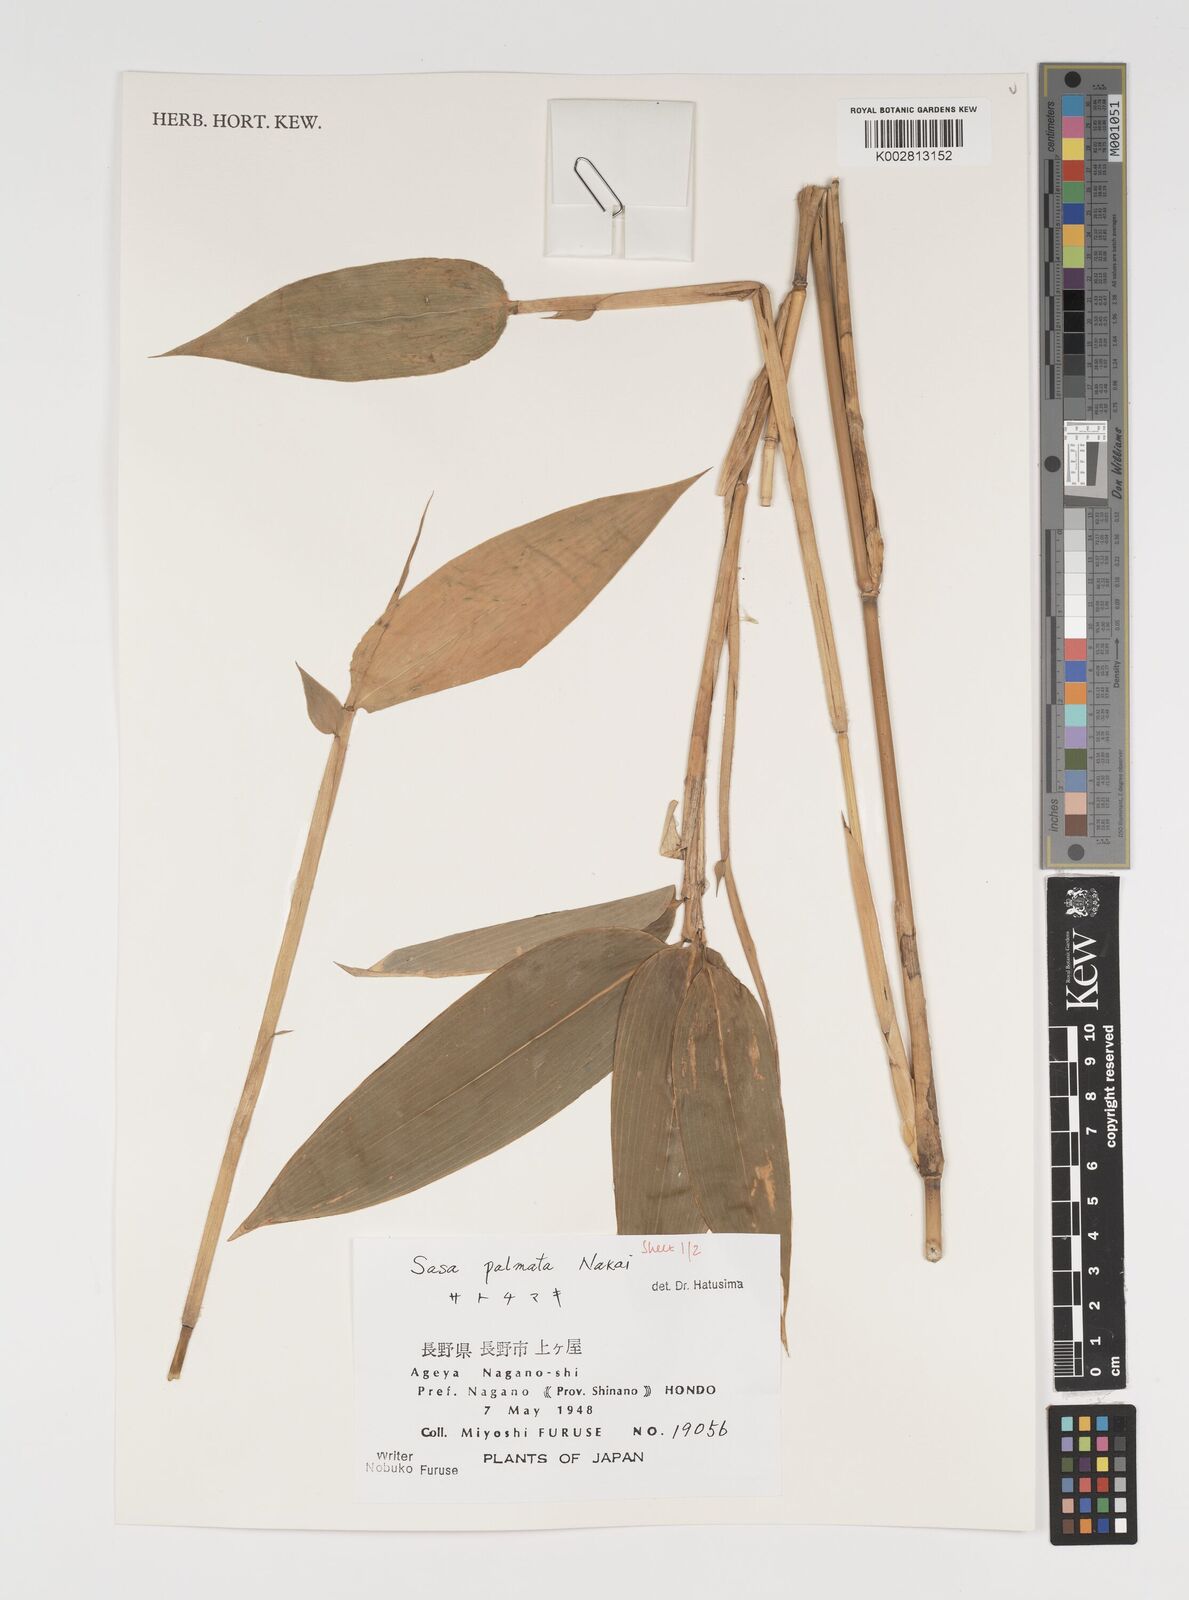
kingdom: Plantae
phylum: Tracheophyta
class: Liliopsida
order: Poales
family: Poaceae
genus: Sasa
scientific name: Sasa palmata
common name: Broad-leaved bamboo
